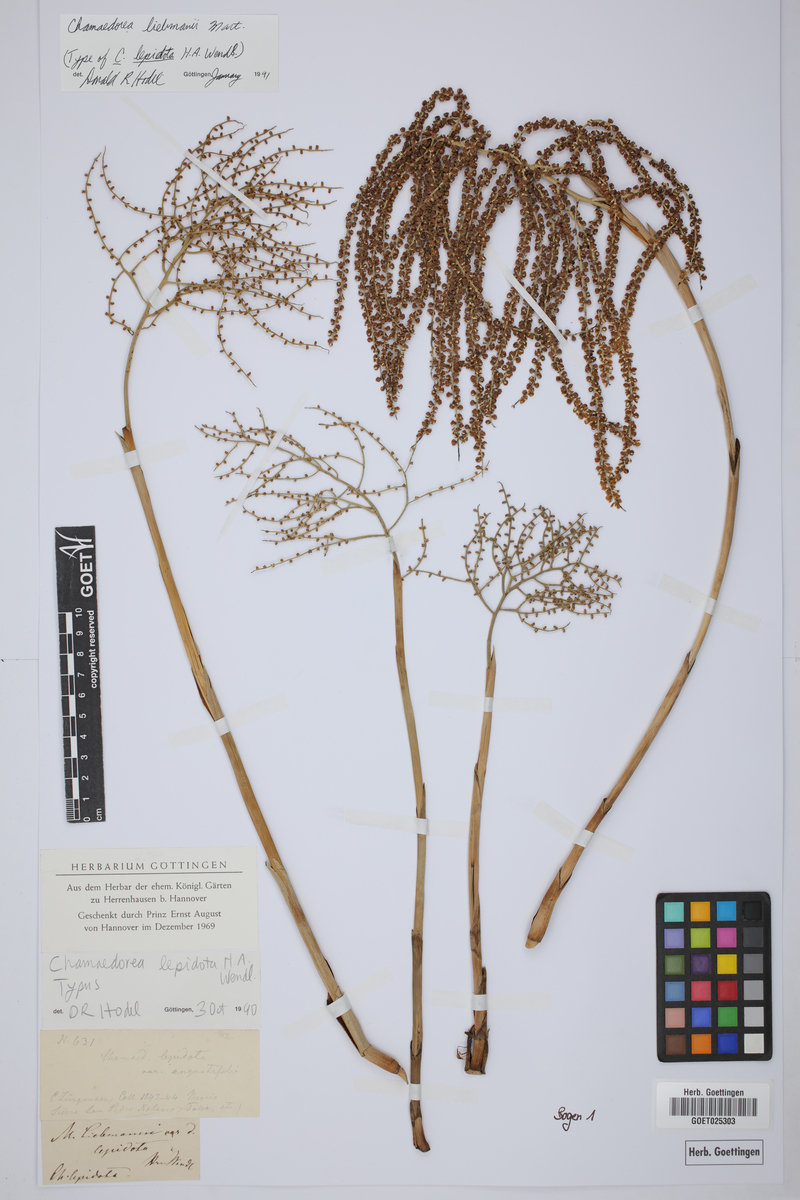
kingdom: Plantae
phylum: Tracheophyta
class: Liliopsida
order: Arecales
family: Arecaceae
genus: Chamaedorea
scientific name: Chamaedorea liebmannii
